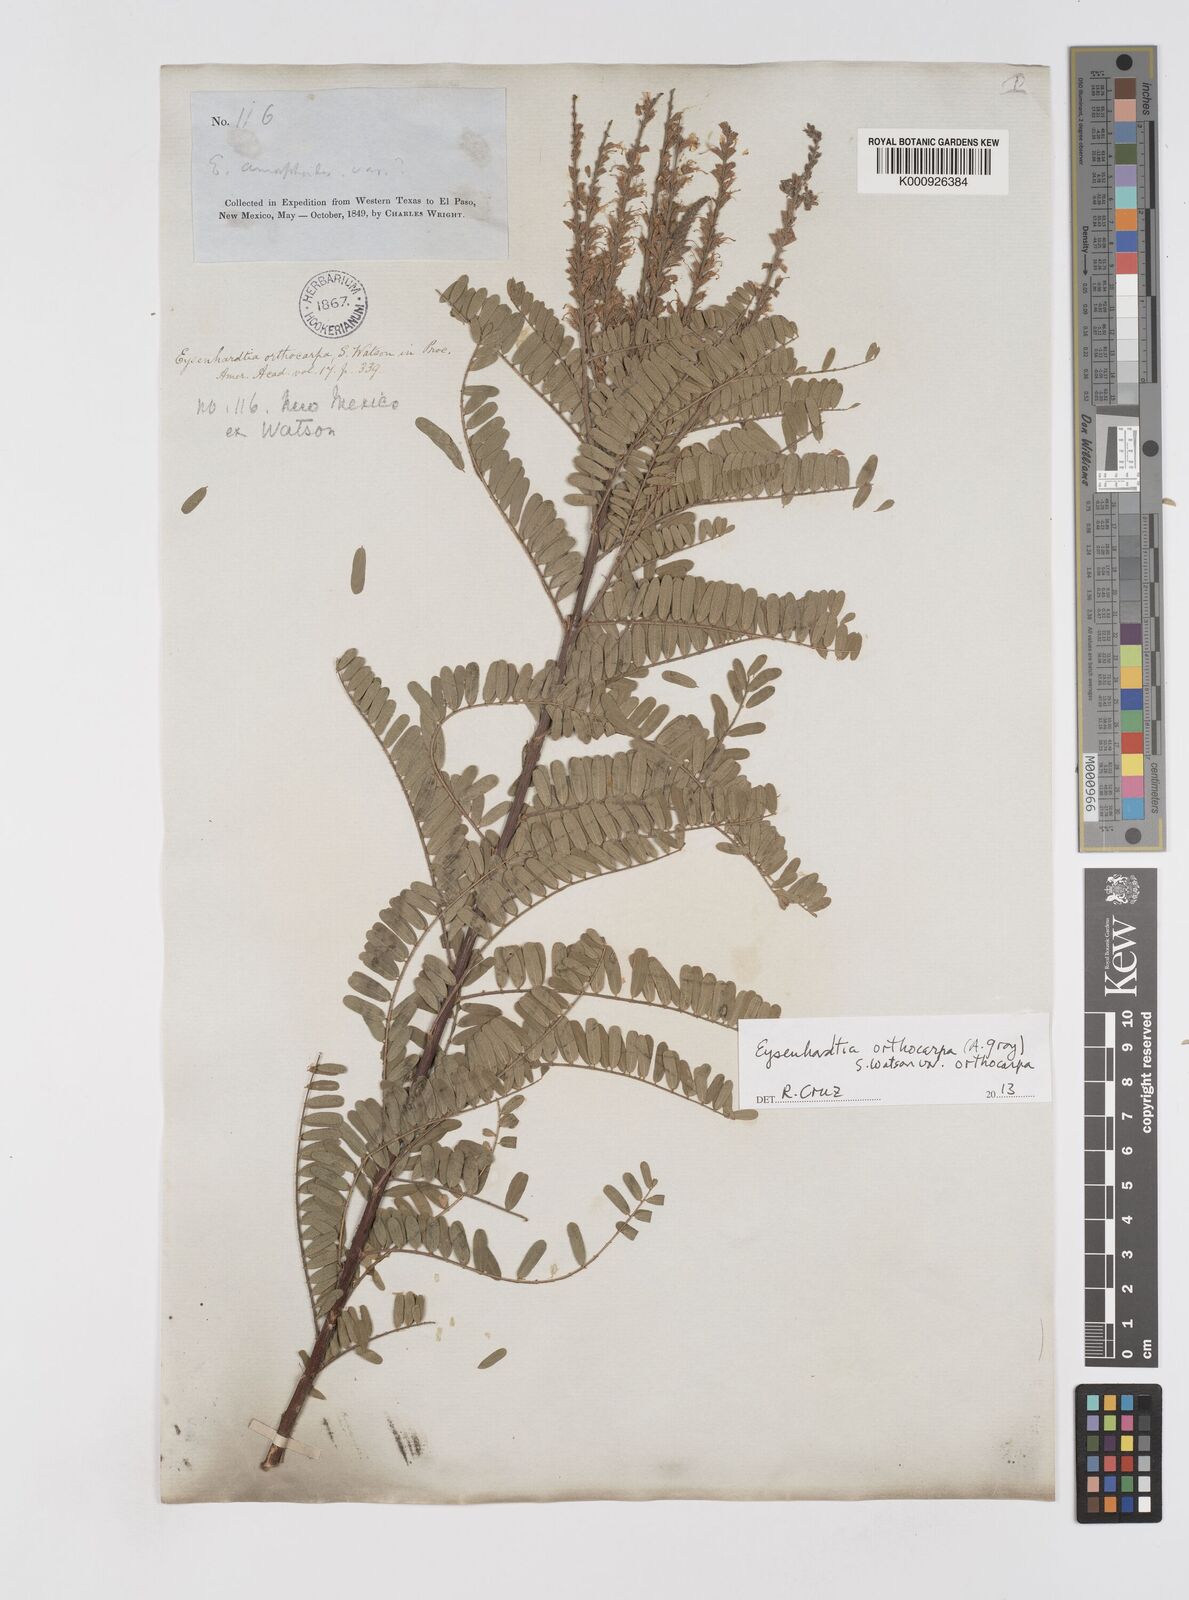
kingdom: Plantae
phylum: Tracheophyta
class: Magnoliopsida
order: Fabales
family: Fabaceae
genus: Eysenhardtia
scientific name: Eysenhardtia orthocarpa
